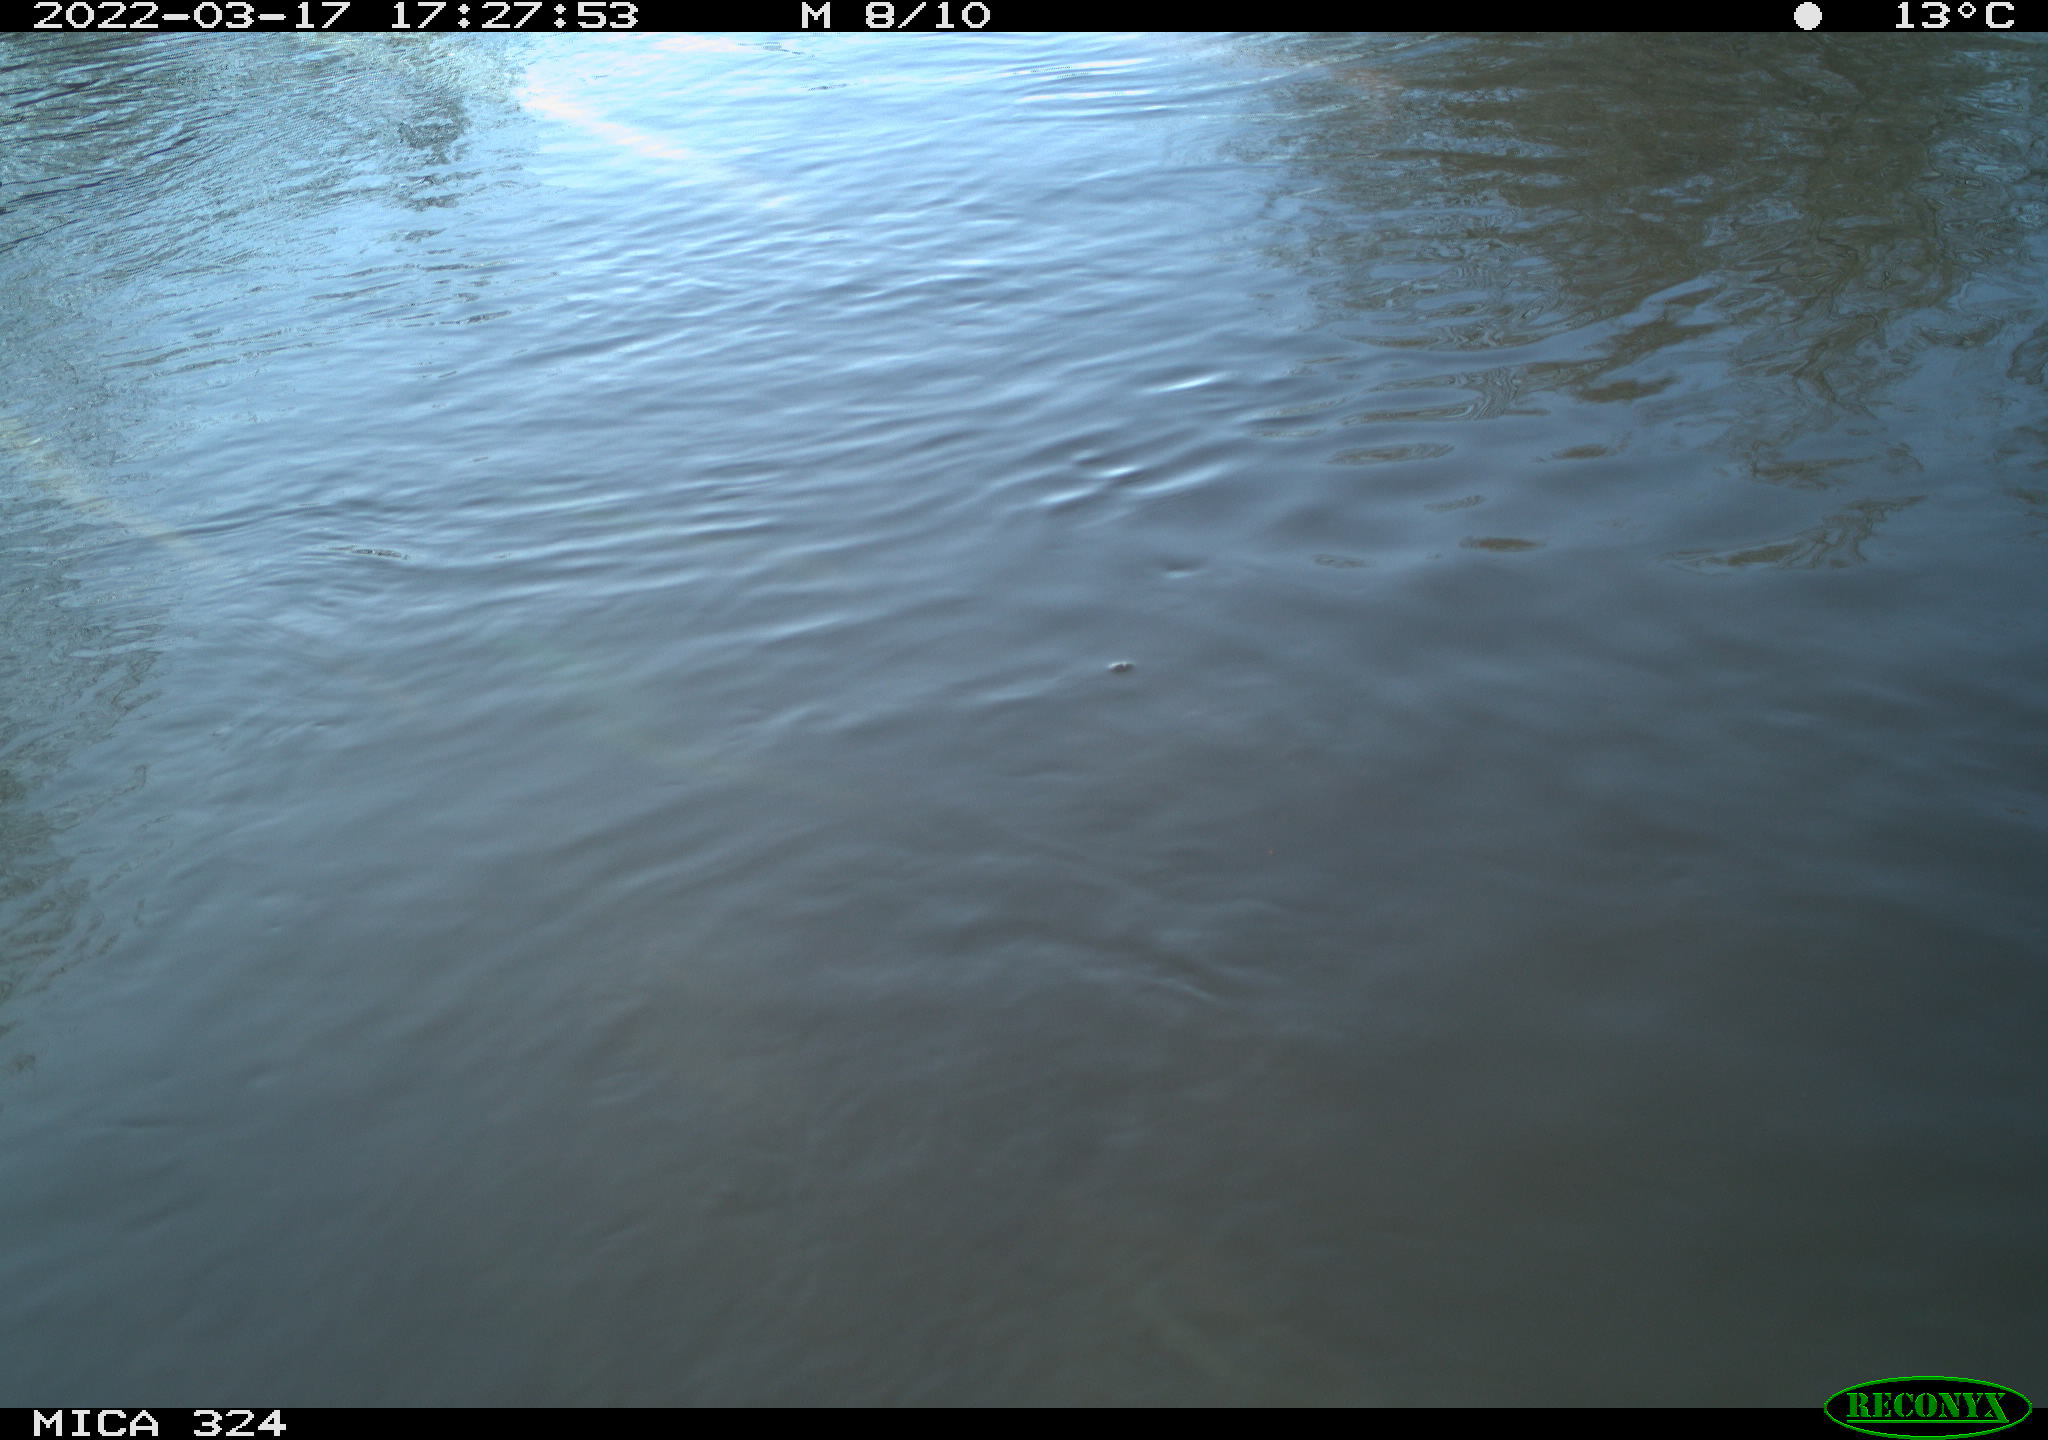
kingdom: Animalia
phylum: Chordata
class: Mammalia
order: Rodentia
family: Cricetidae
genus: Ondatra
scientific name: Ondatra zibethicus
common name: Muskrat
